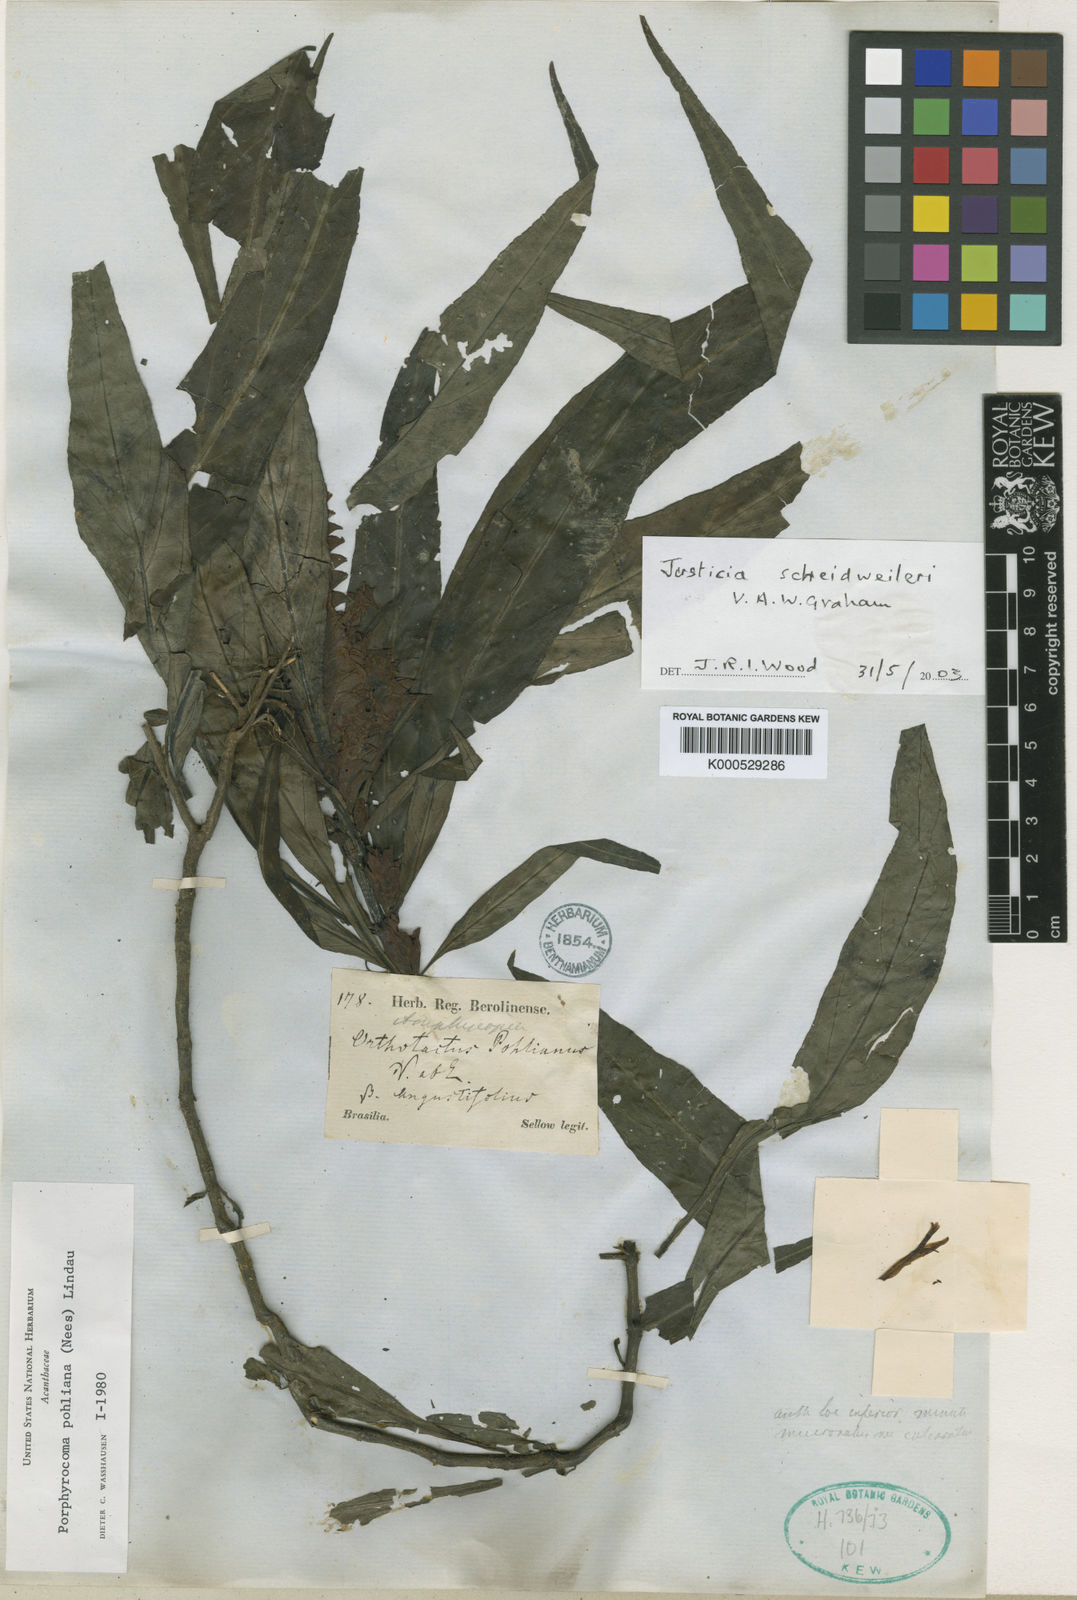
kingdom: Plantae
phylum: Tracheophyta
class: Magnoliopsida
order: Lamiales
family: Acanthaceae
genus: Justicia
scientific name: Justicia scheidweileri
